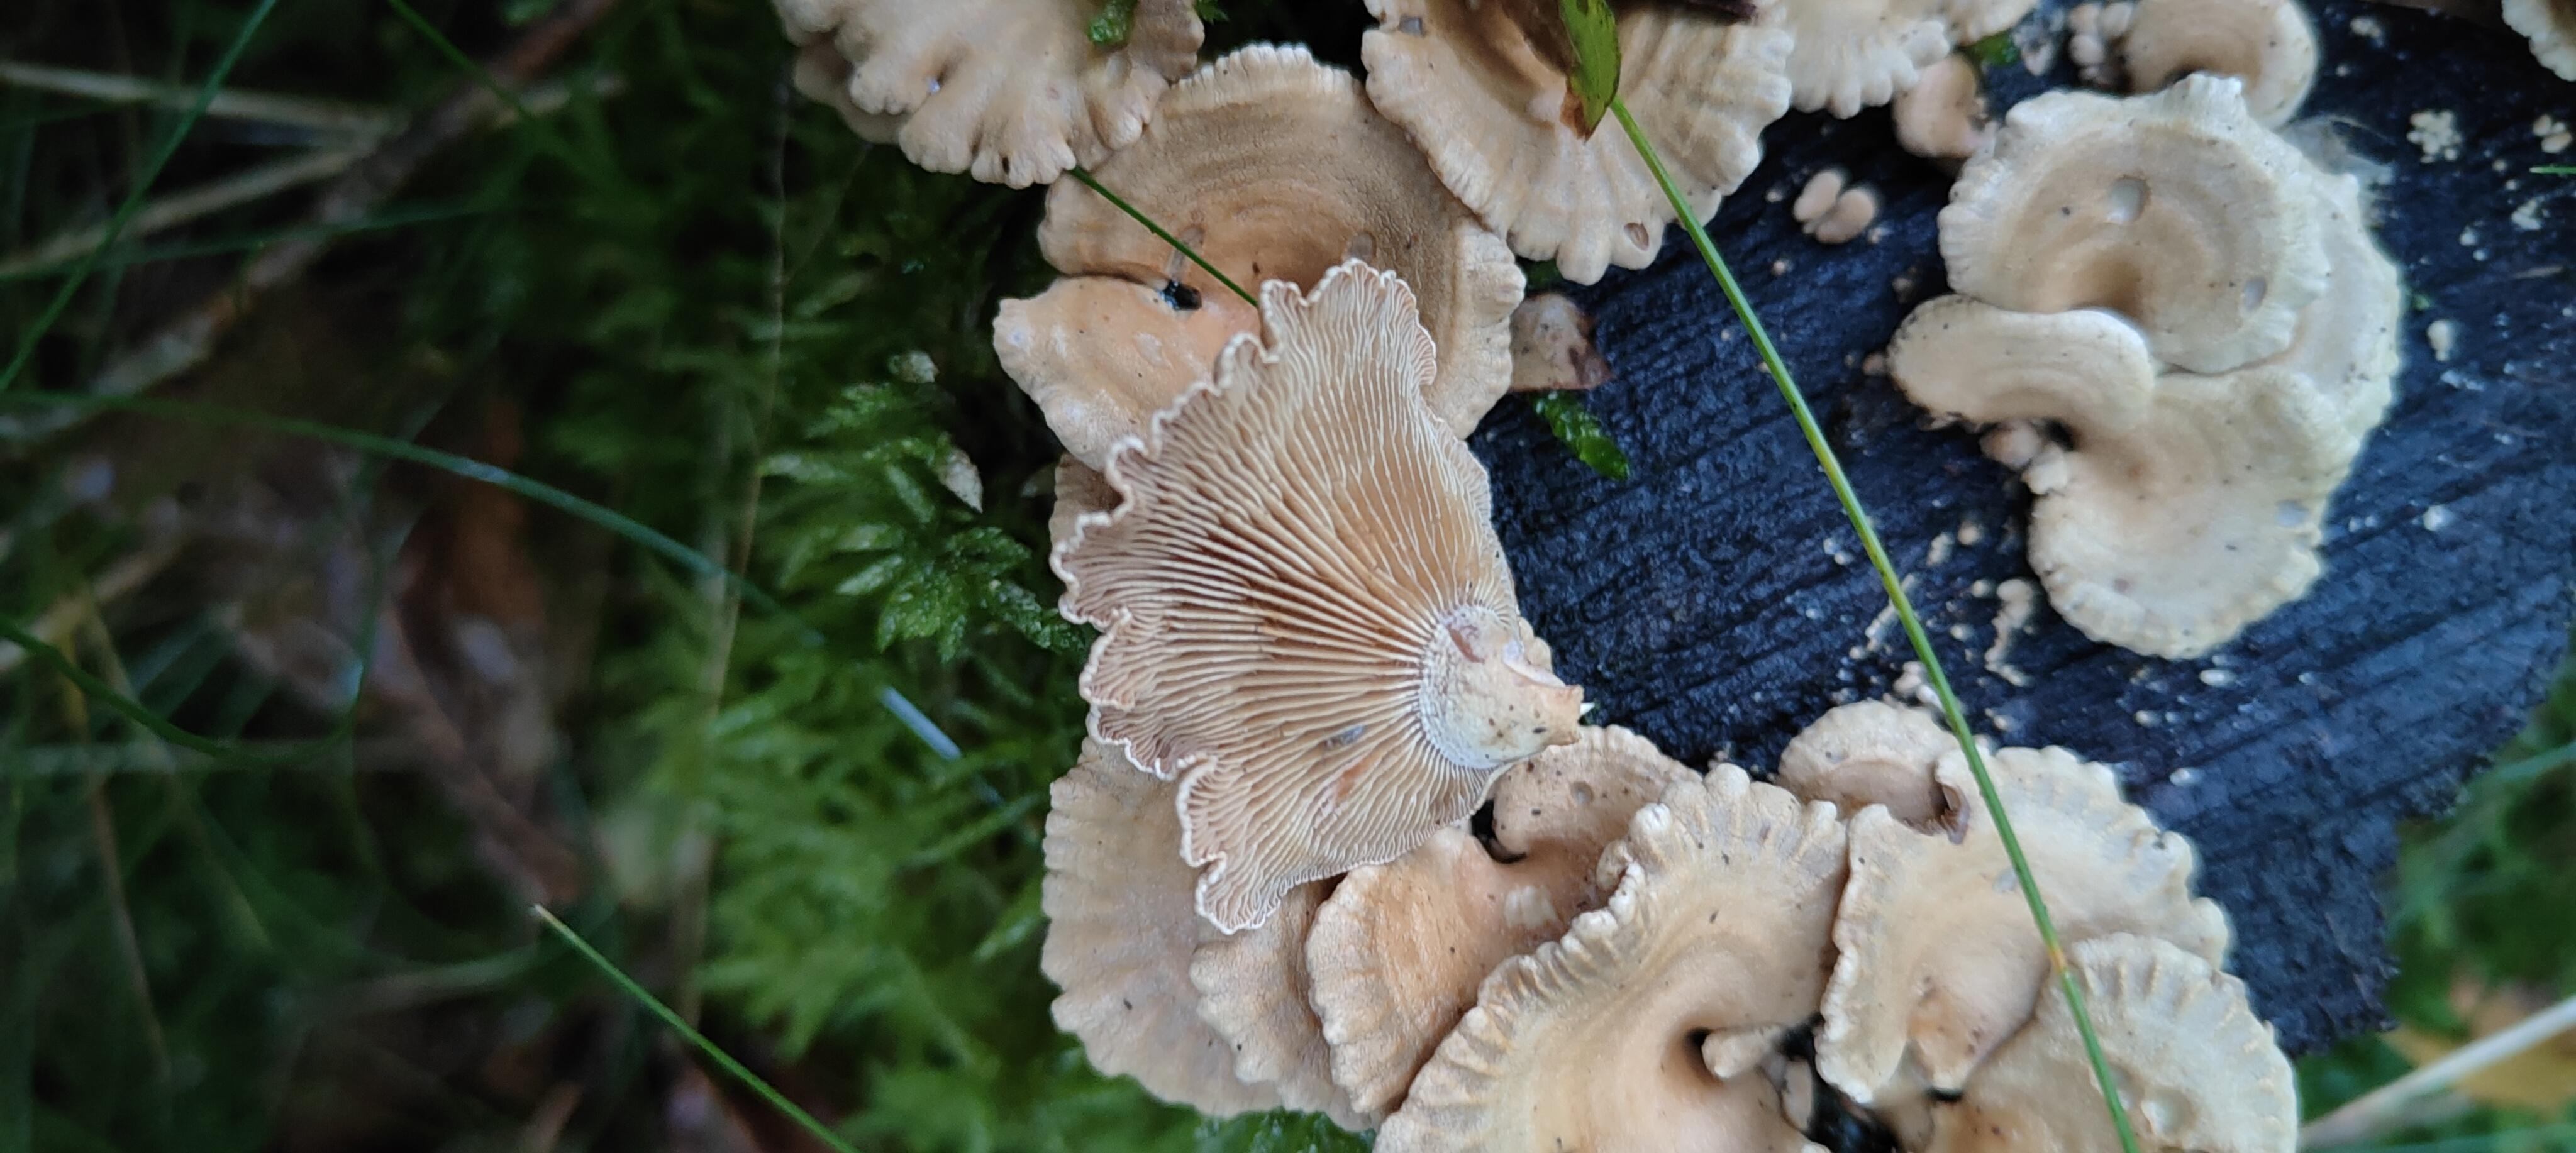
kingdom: Fungi
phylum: Basidiomycota
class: Agaricomycetes
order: Agaricales
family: Mycenaceae
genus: Panellus
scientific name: Panellus stipticus
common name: kliddet epaulethat
